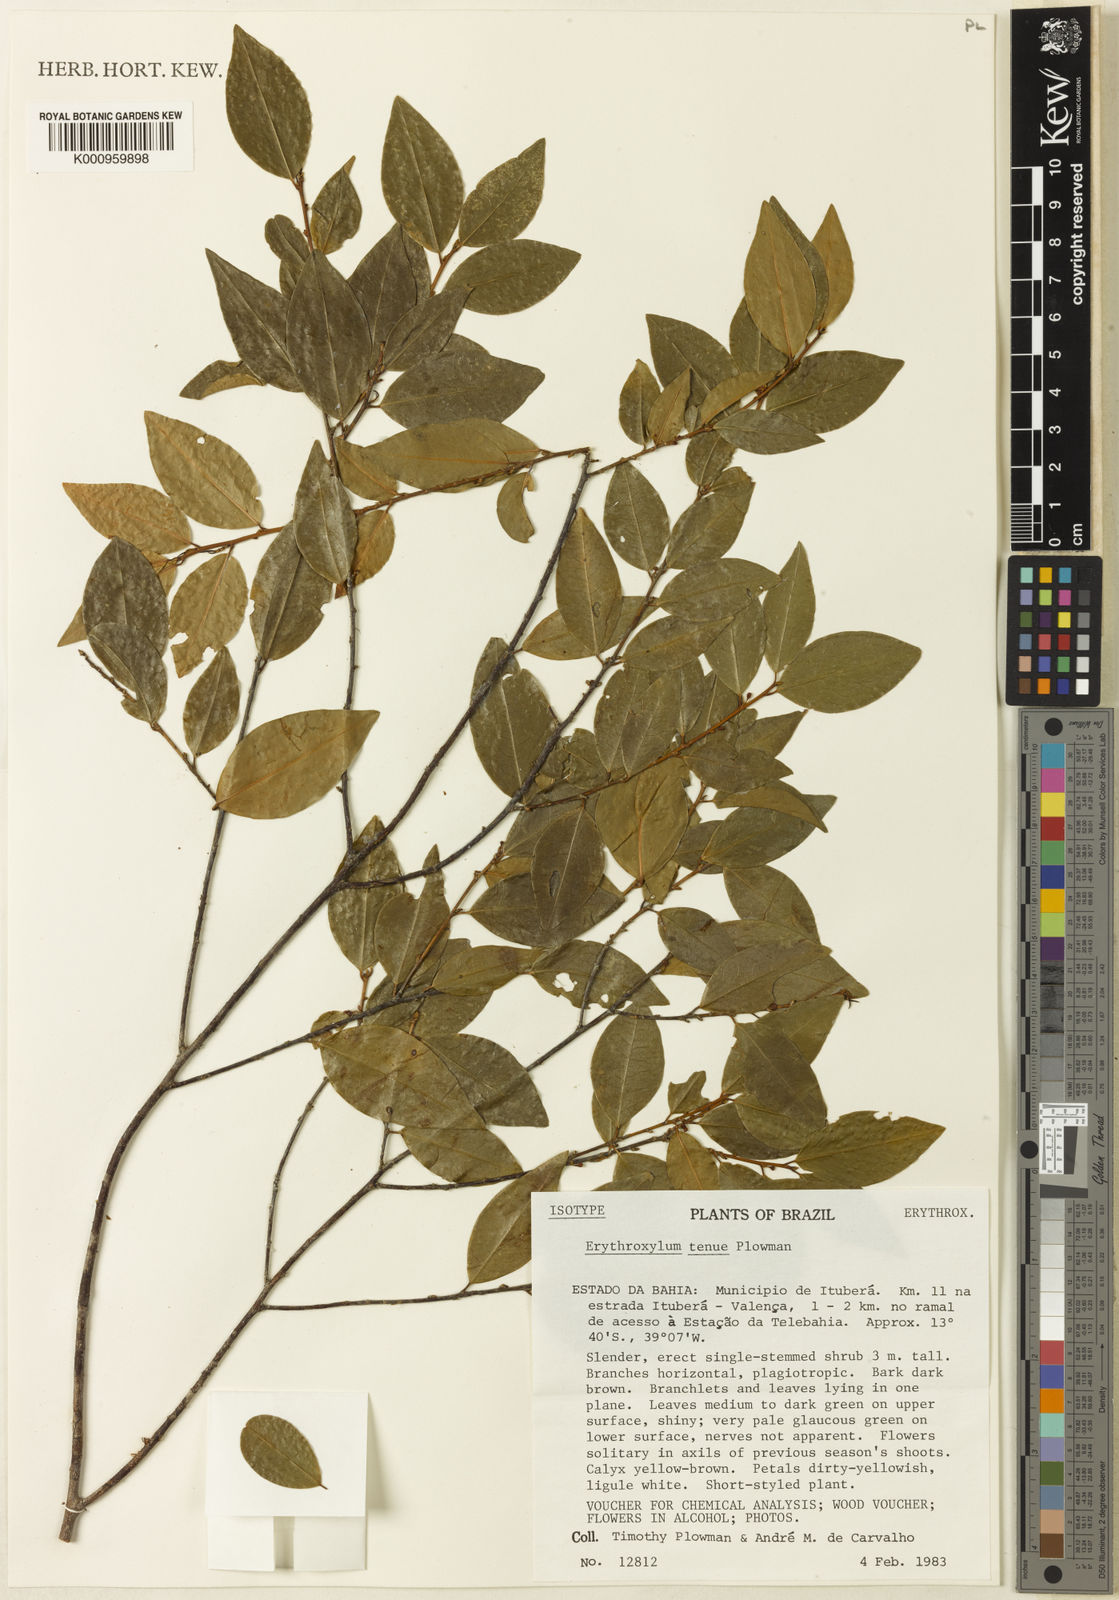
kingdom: Plantae
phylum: Tracheophyta
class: Magnoliopsida
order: Malpighiales
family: Erythroxylaceae
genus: Erythroxylum
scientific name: Erythroxylum tenue
